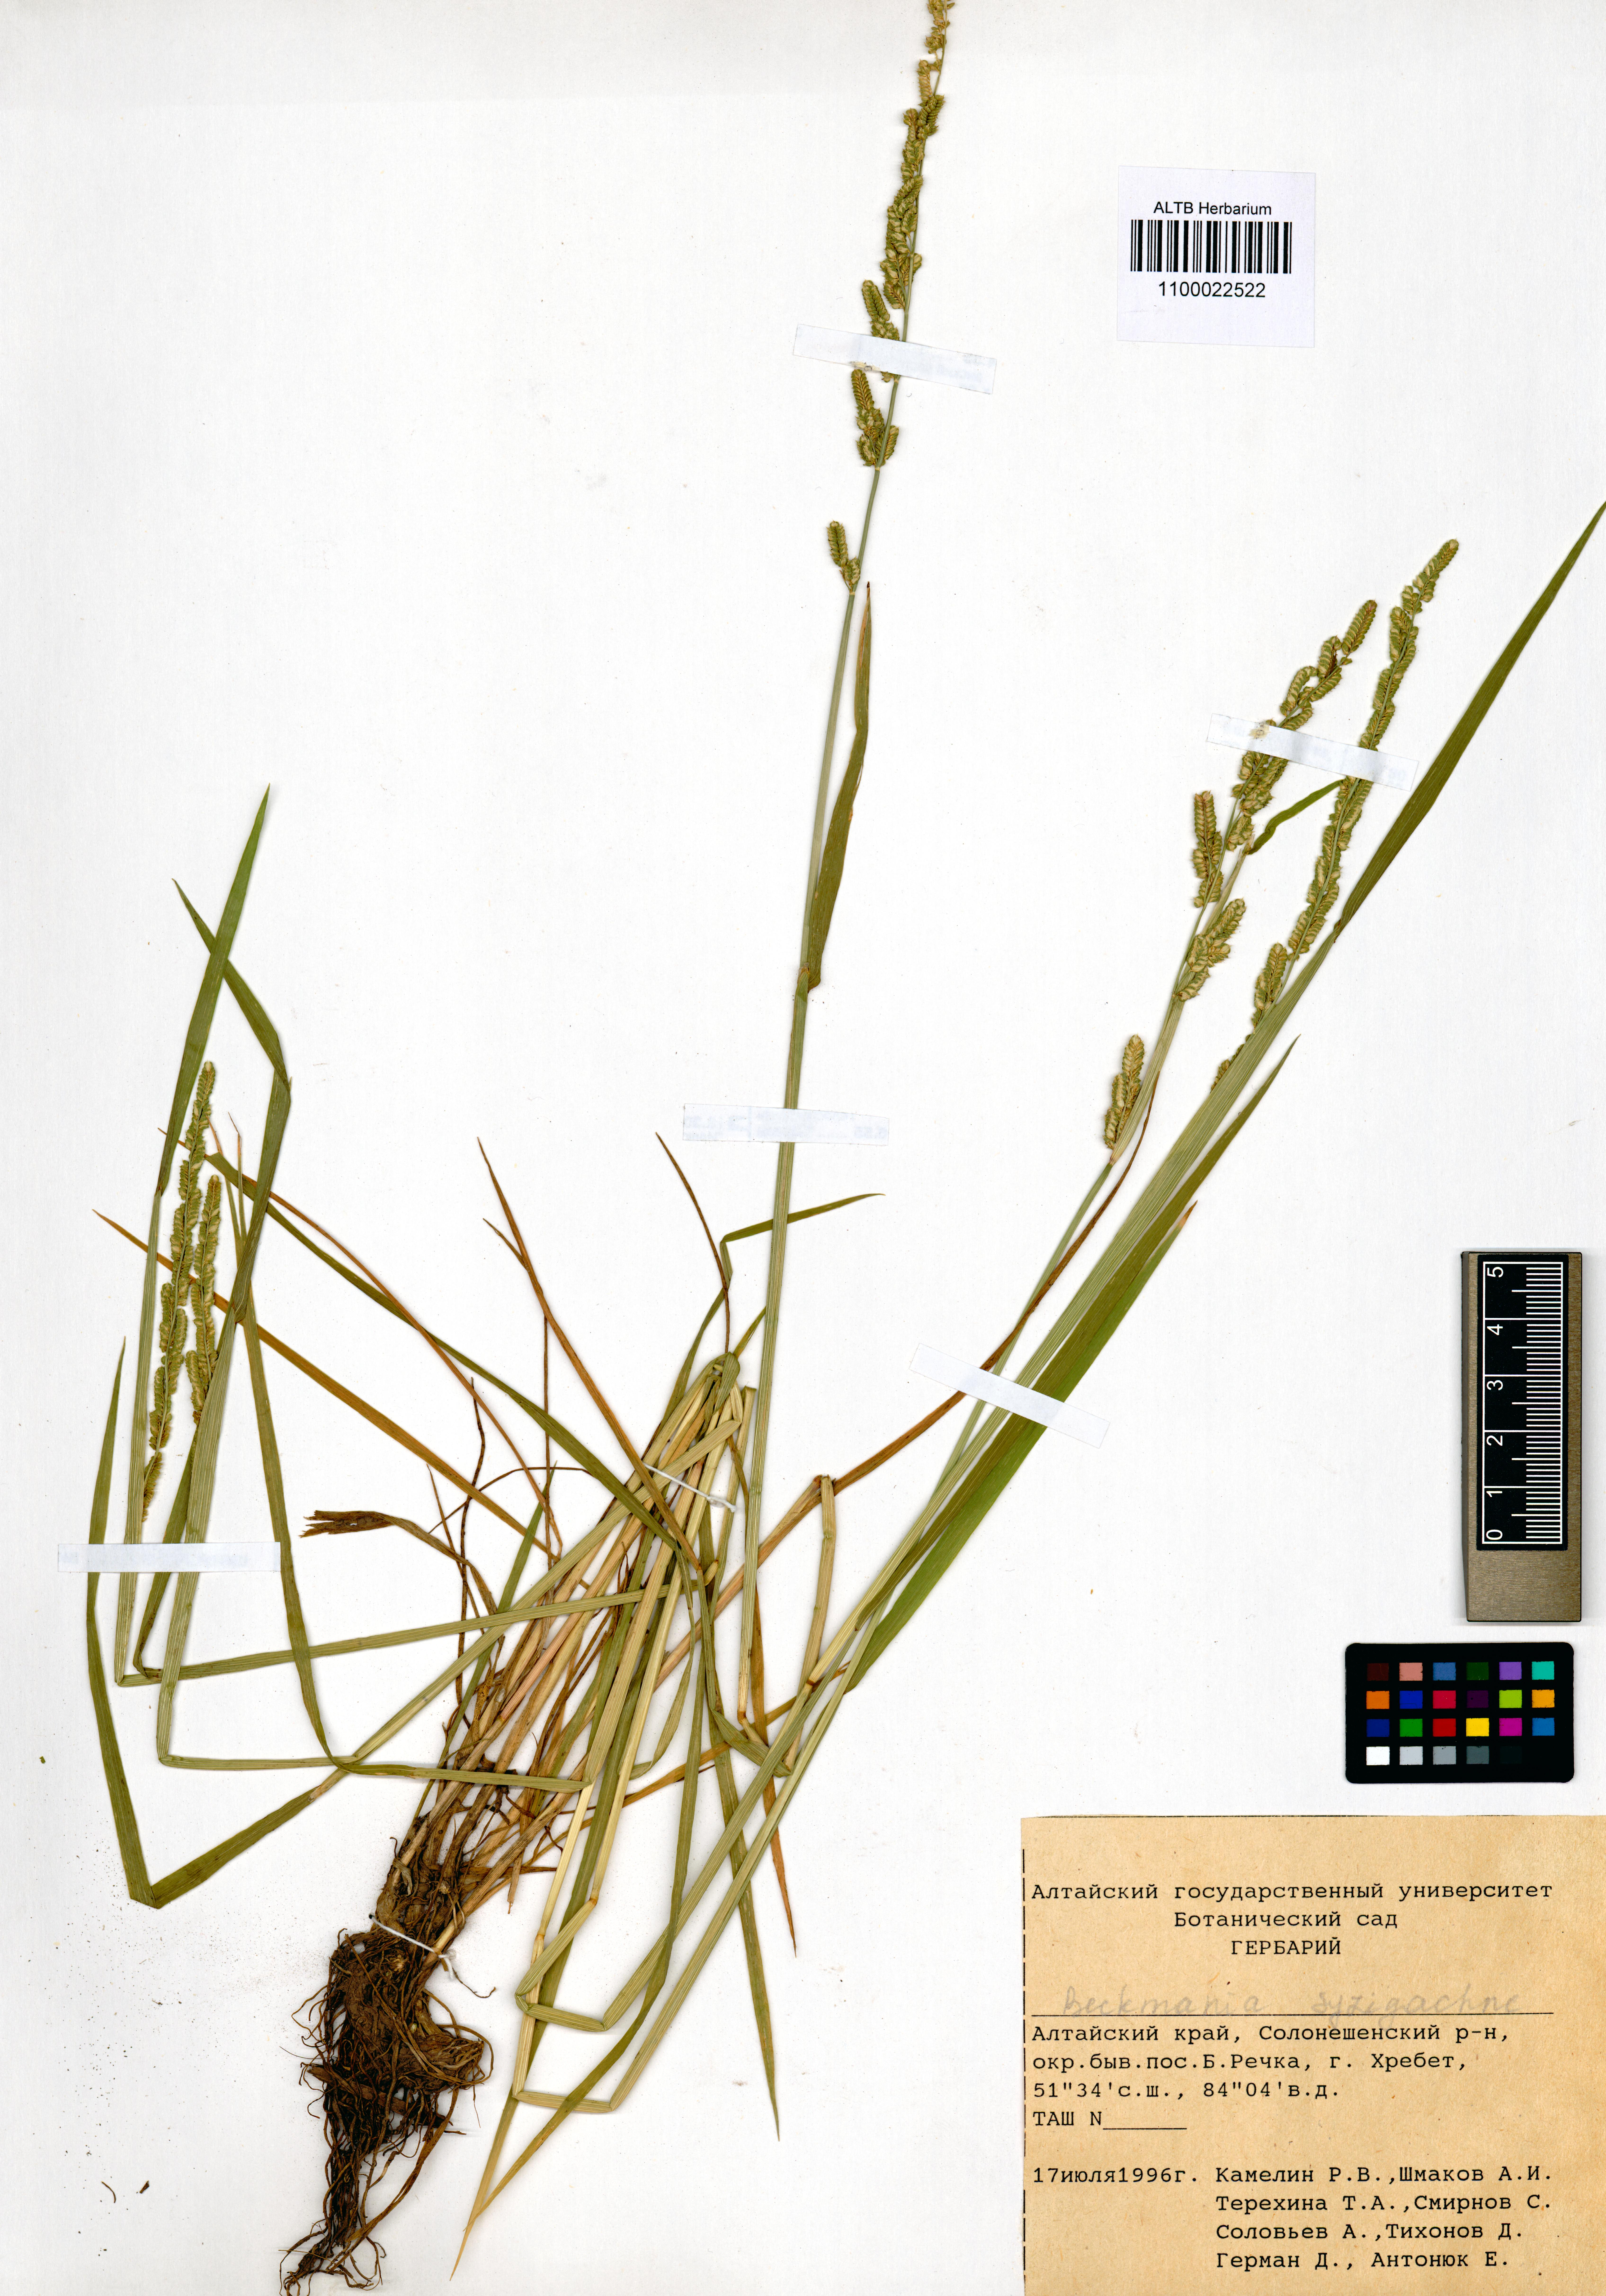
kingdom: Plantae
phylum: Tracheophyta
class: Liliopsida
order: Poales
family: Poaceae
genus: Beckmannia
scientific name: Beckmannia syzigachne
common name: American slough-grass
